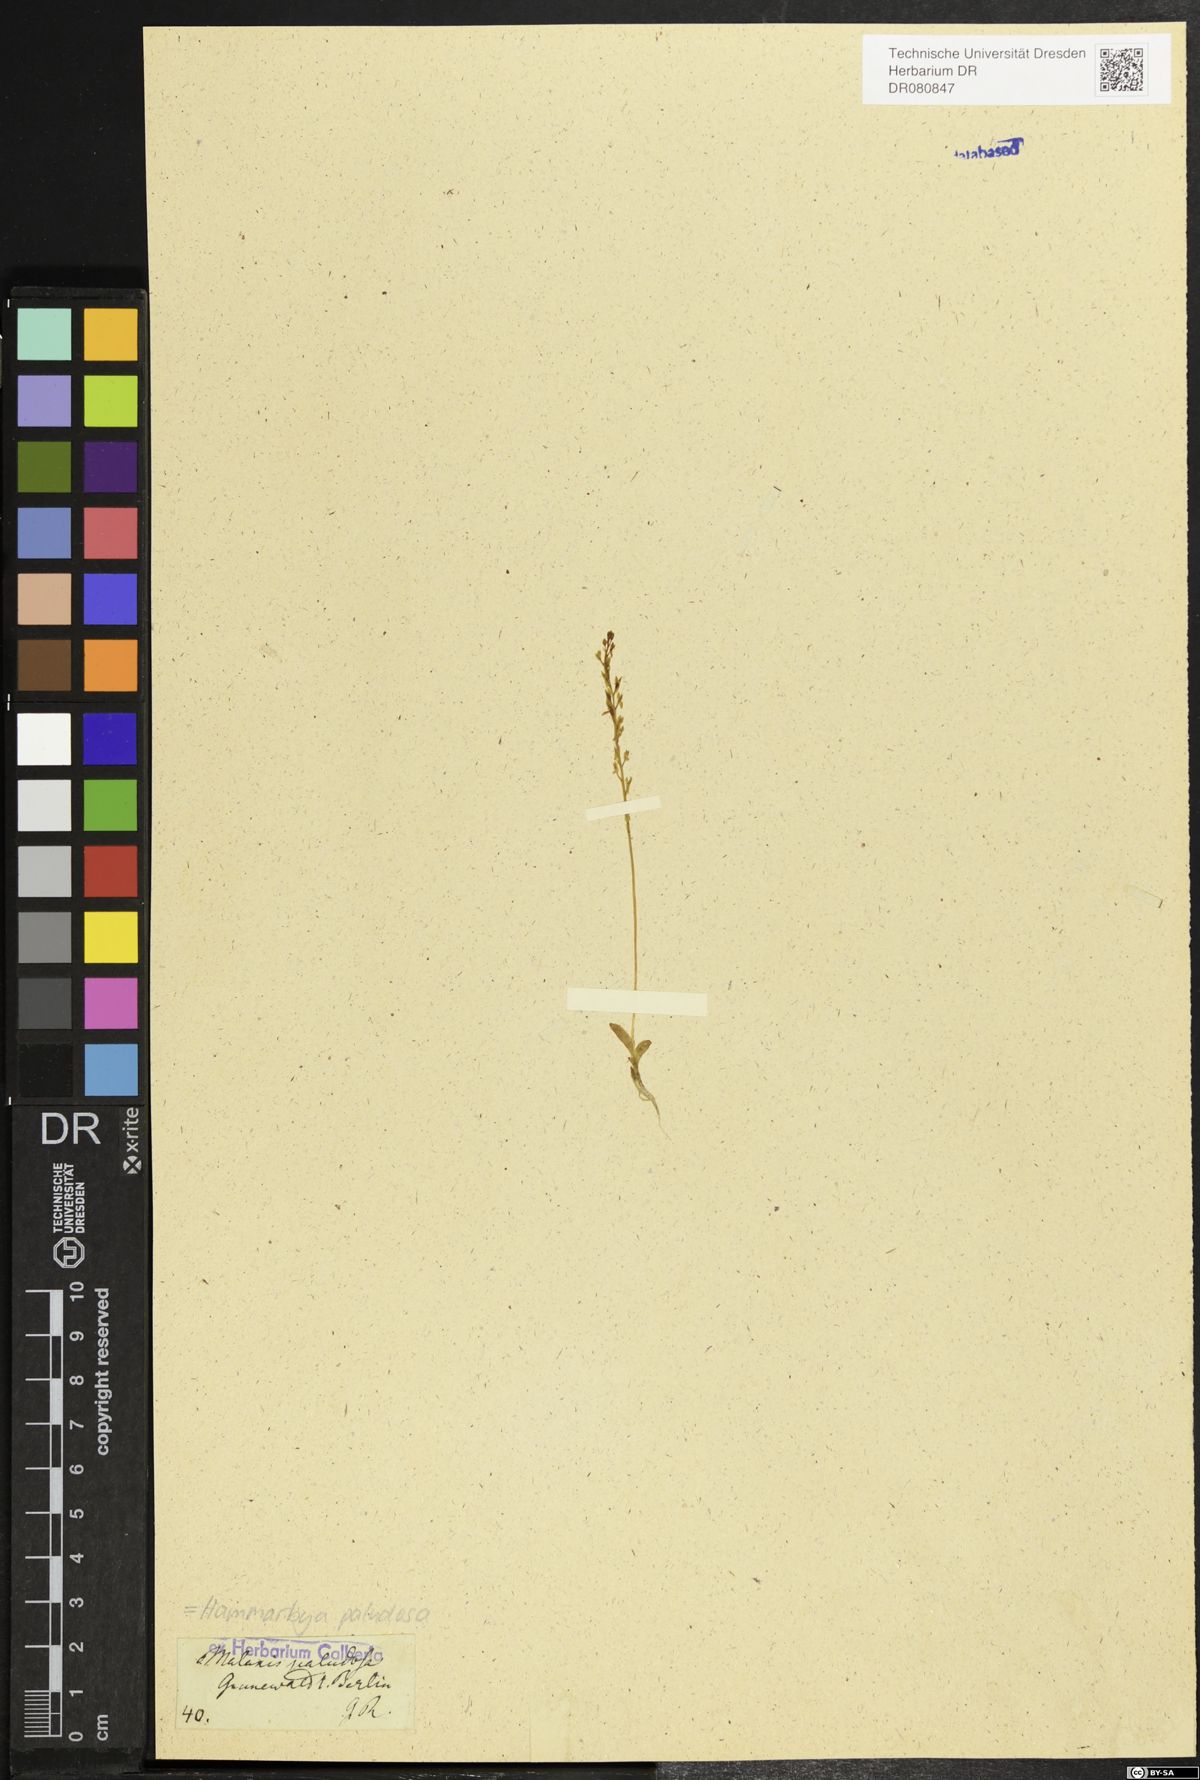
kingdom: Plantae
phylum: Tracheophyta
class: Liliopsida
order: Asparagales
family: Orchidaceae
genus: Hammarbya
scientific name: Hammarbya paludosa
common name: Bog orchid
